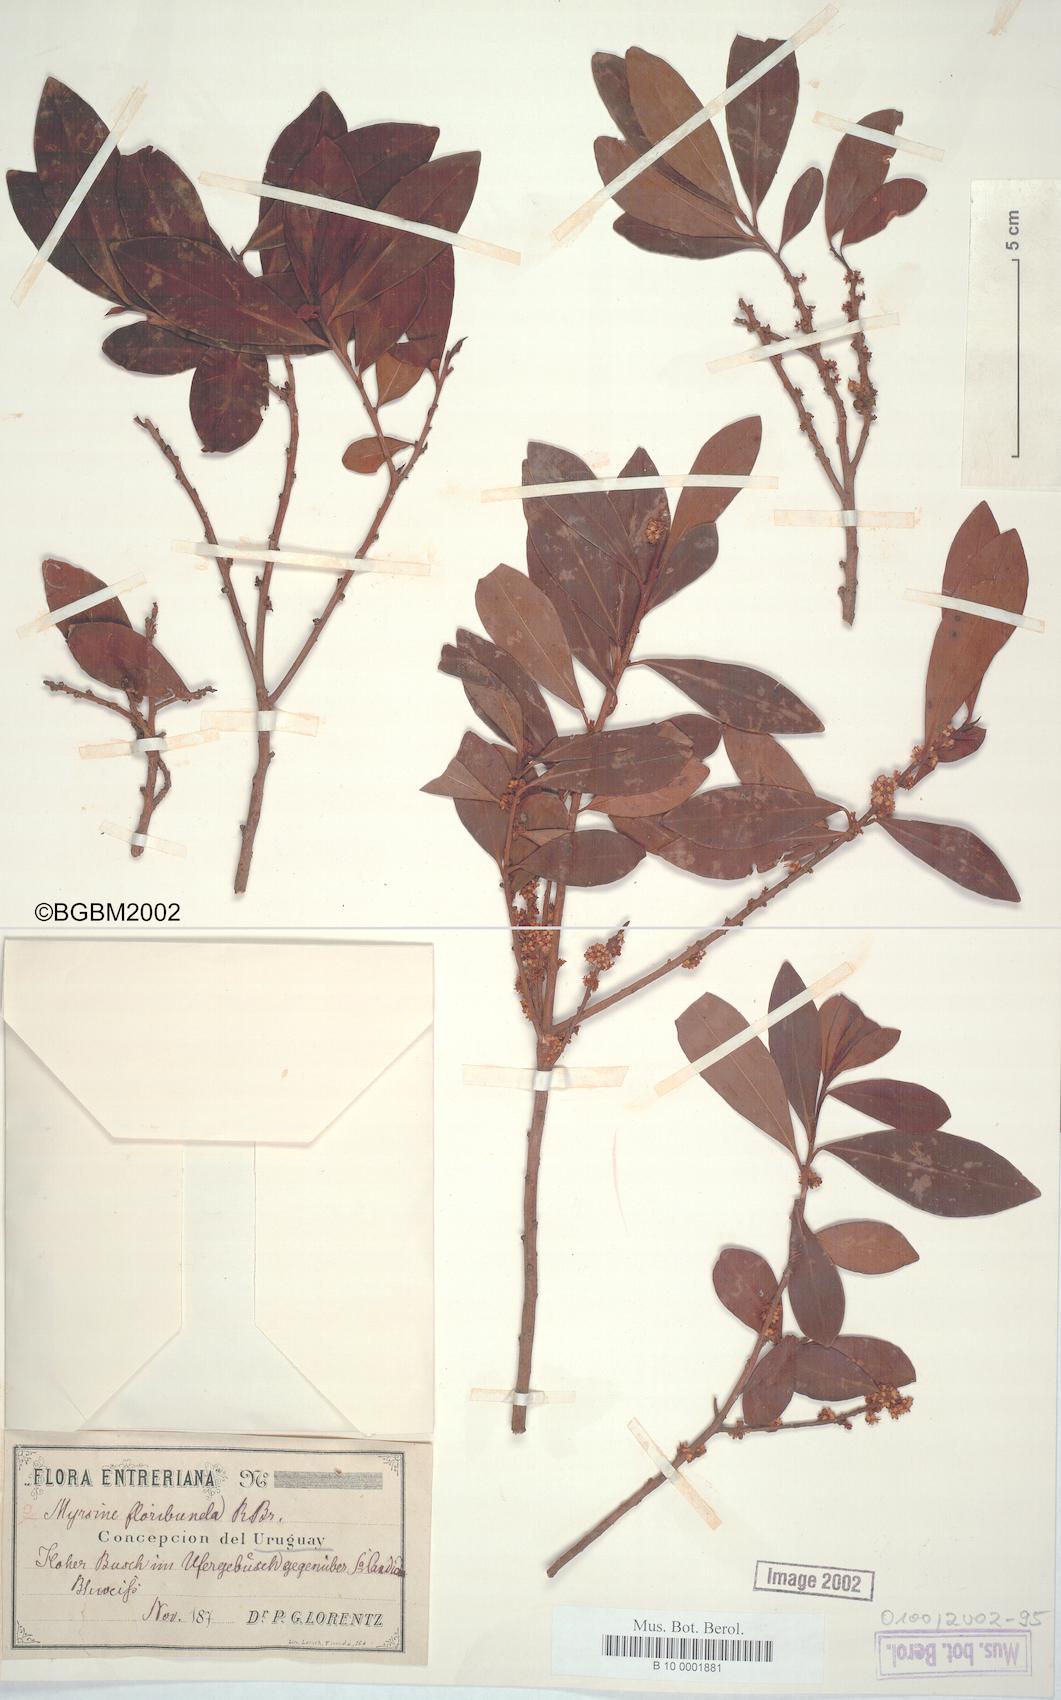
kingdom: Plantae
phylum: Tracheophyta
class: Magnoliopsida
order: Ericales
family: Primulaceae
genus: Myrsine
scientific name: Myrsine
